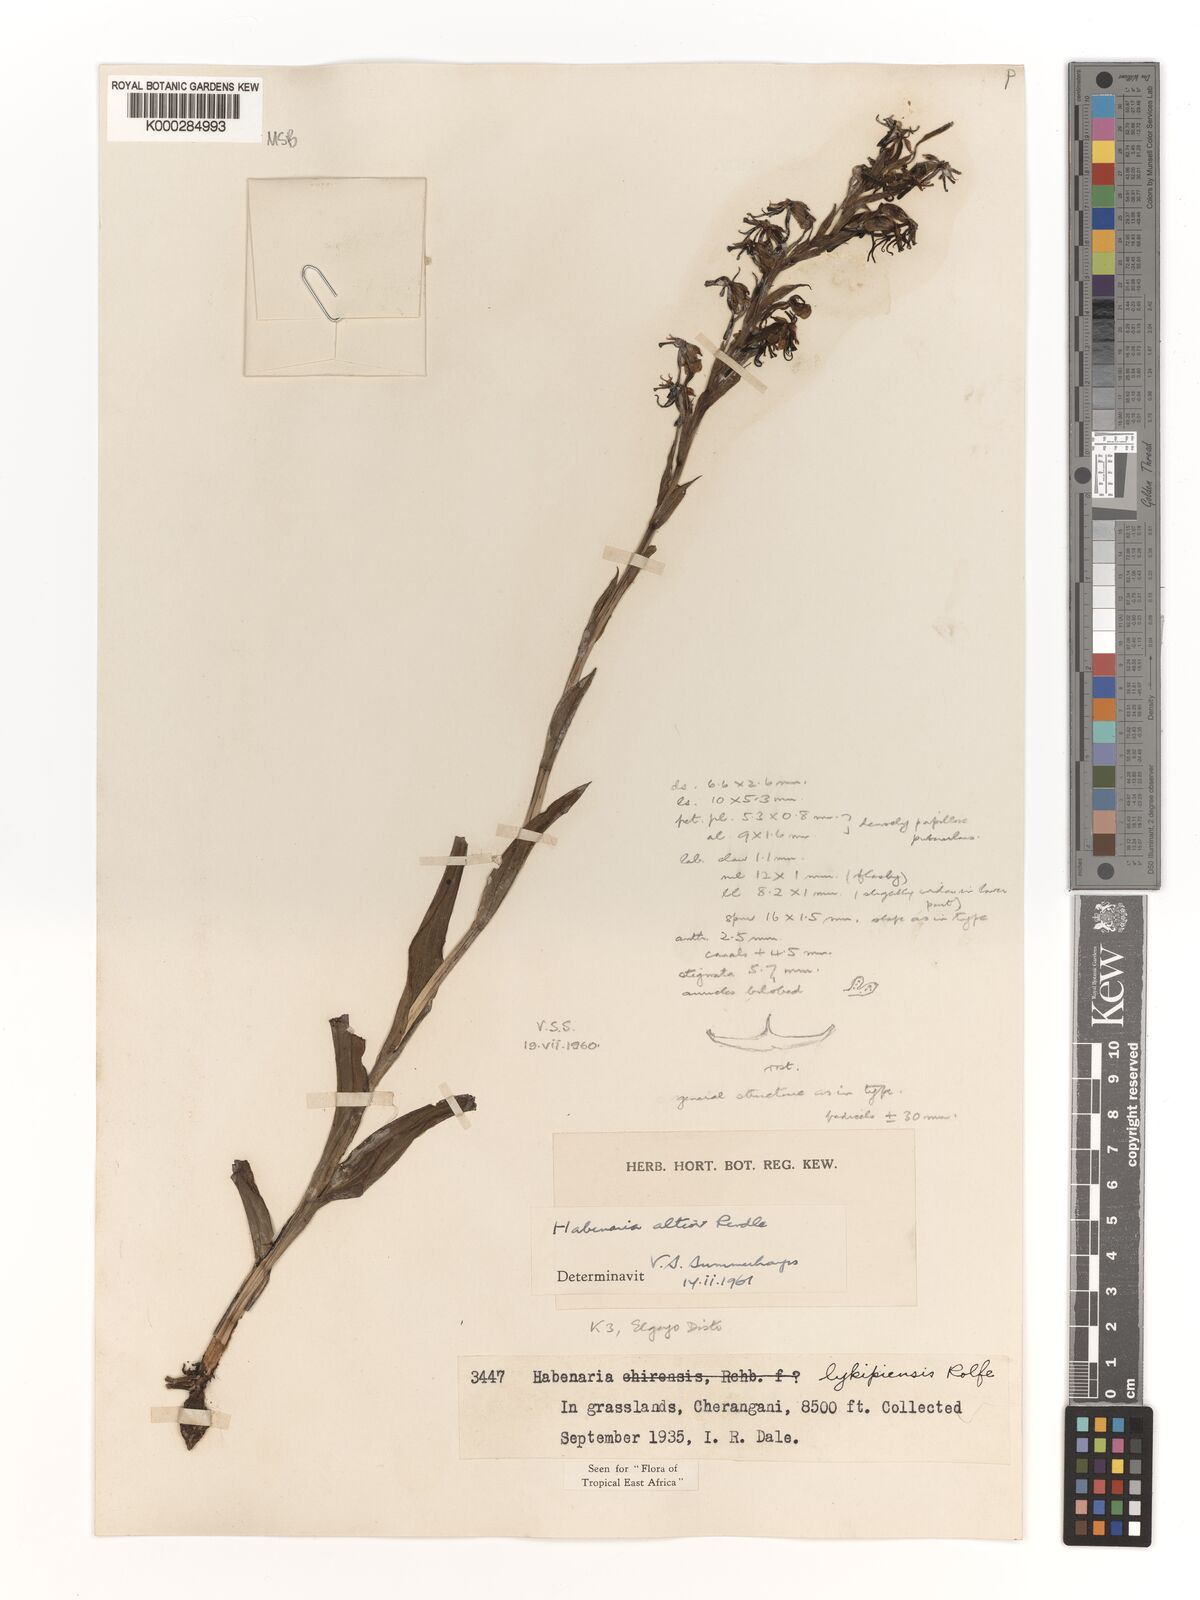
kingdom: Plantae
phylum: Tracheophyta
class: Liliopsida
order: Asparagales
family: Orchidaceae
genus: Habenaria
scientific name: Habenaria altior
